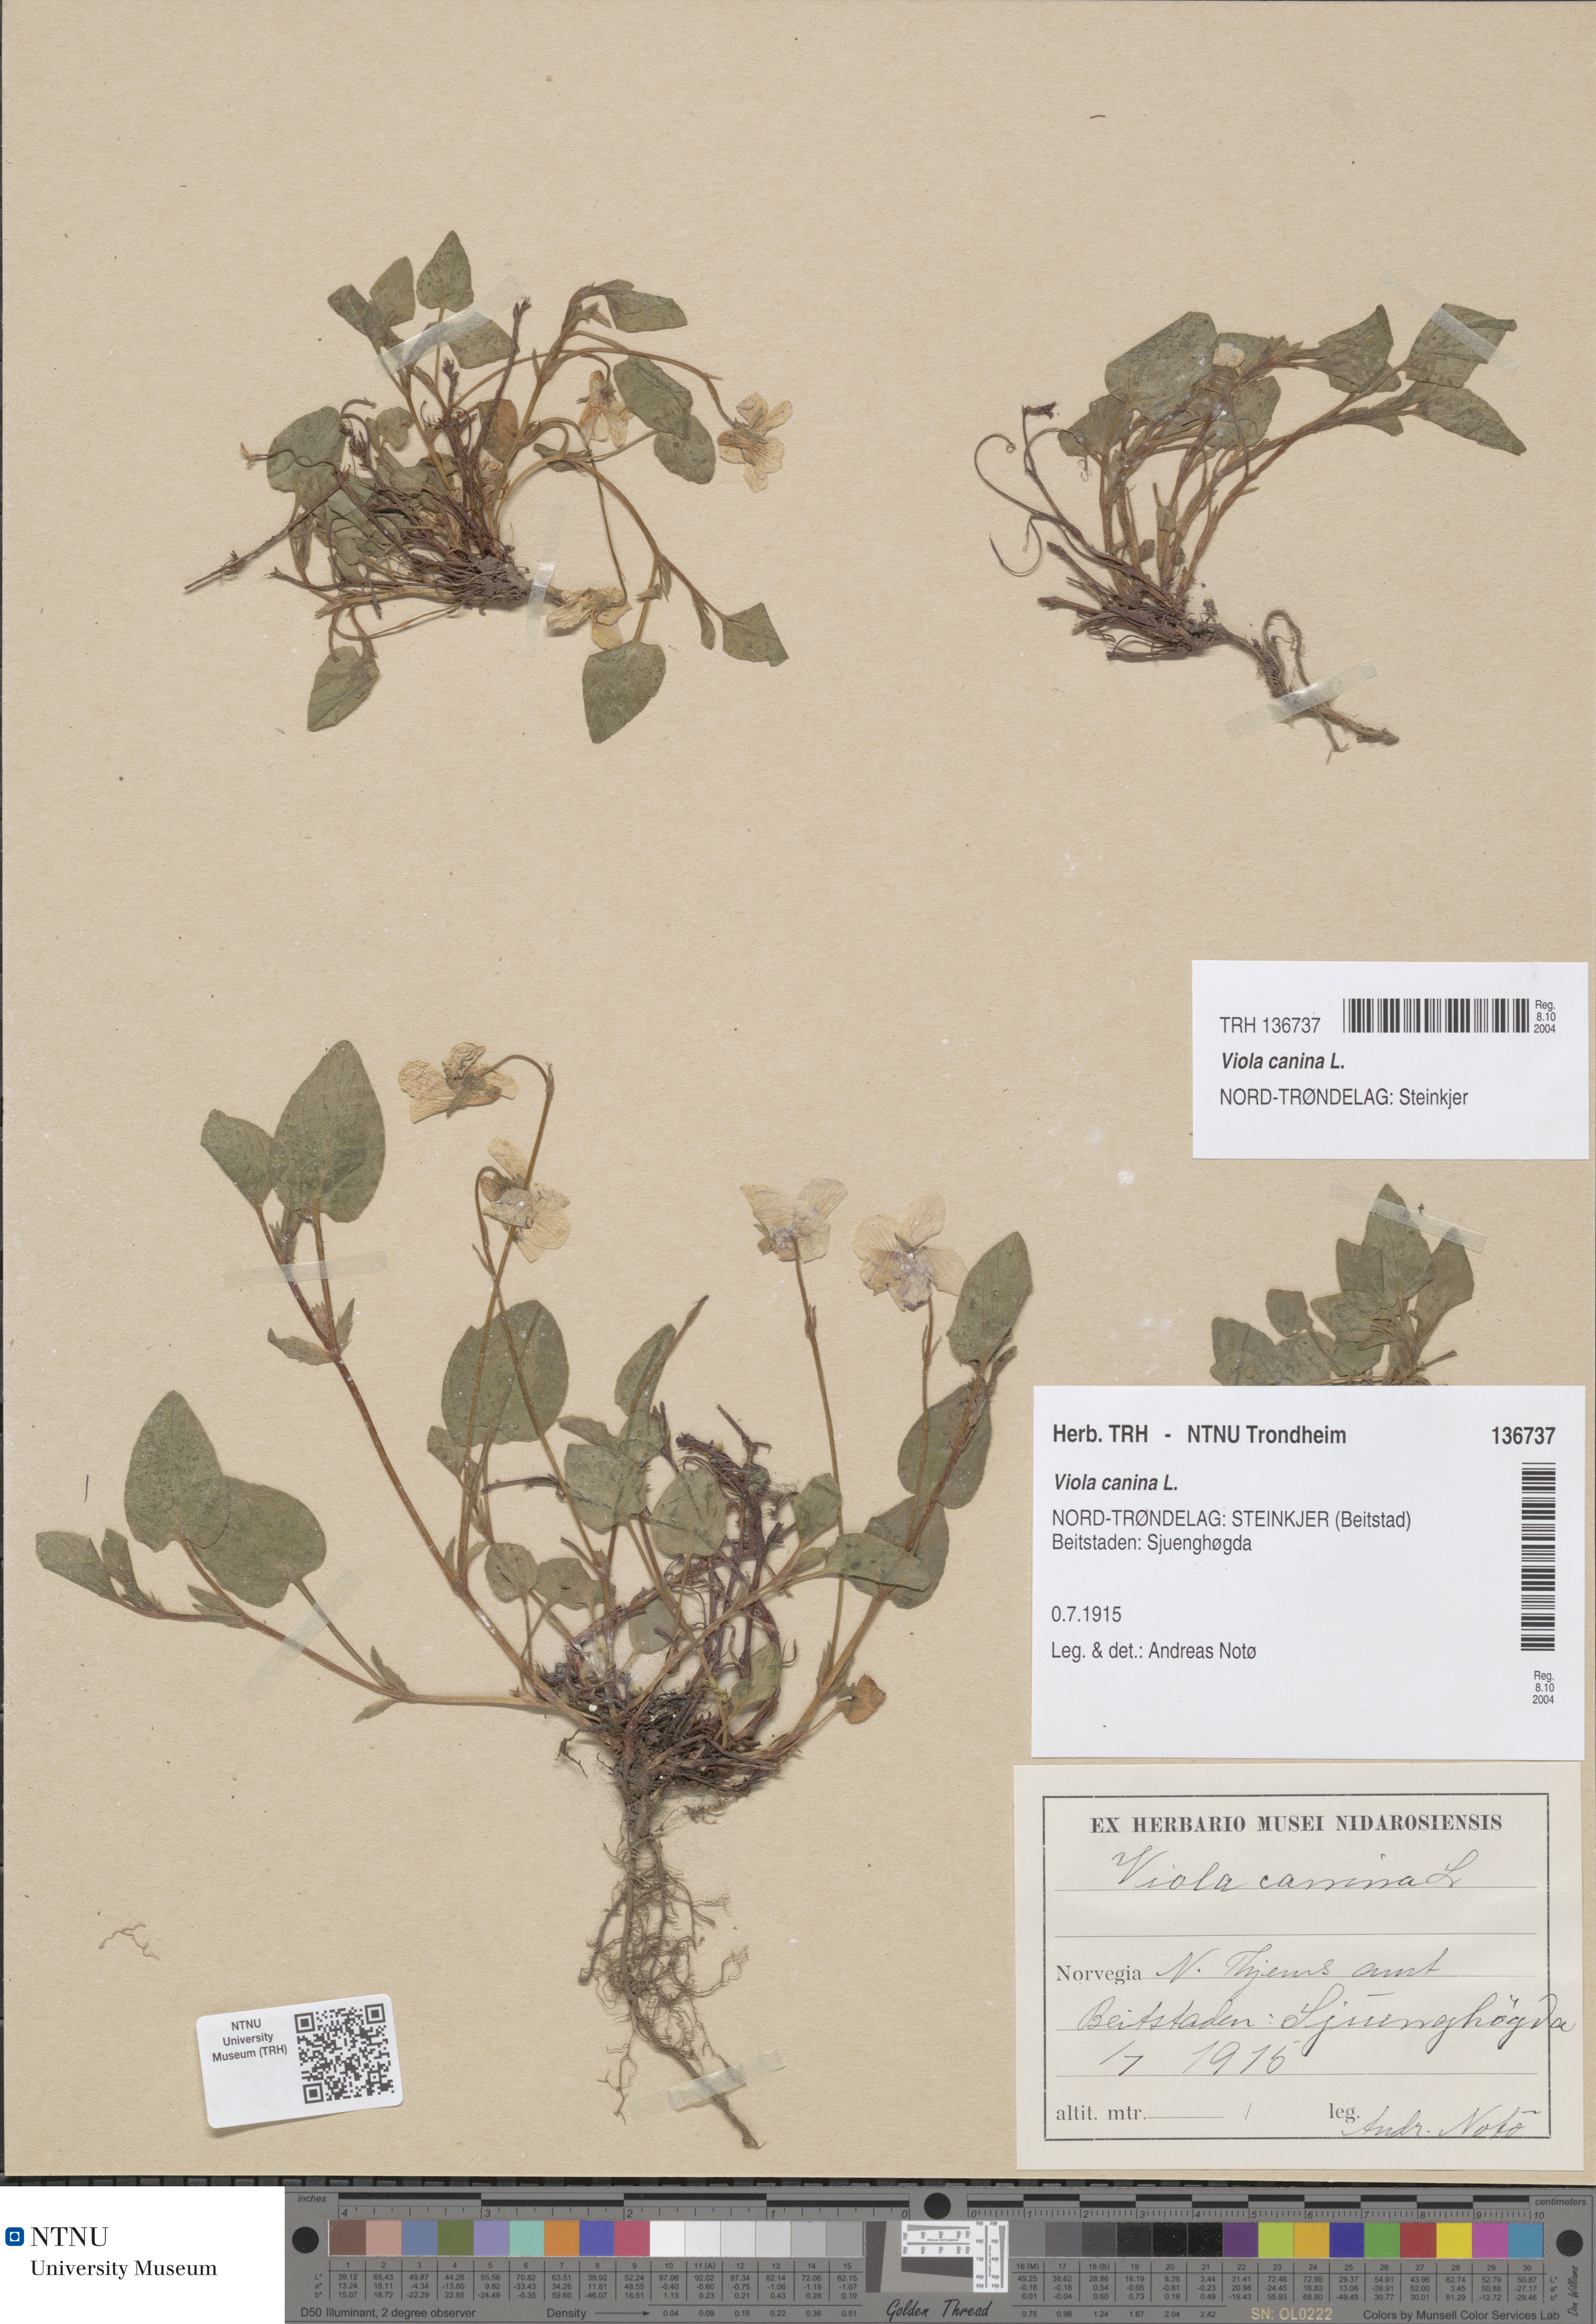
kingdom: Plantae
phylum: Tracheophyta
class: Magnoliopsida
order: Malpighiales
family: Violaceae
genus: Viola
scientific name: Viola canina
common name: Heath dog-violet
